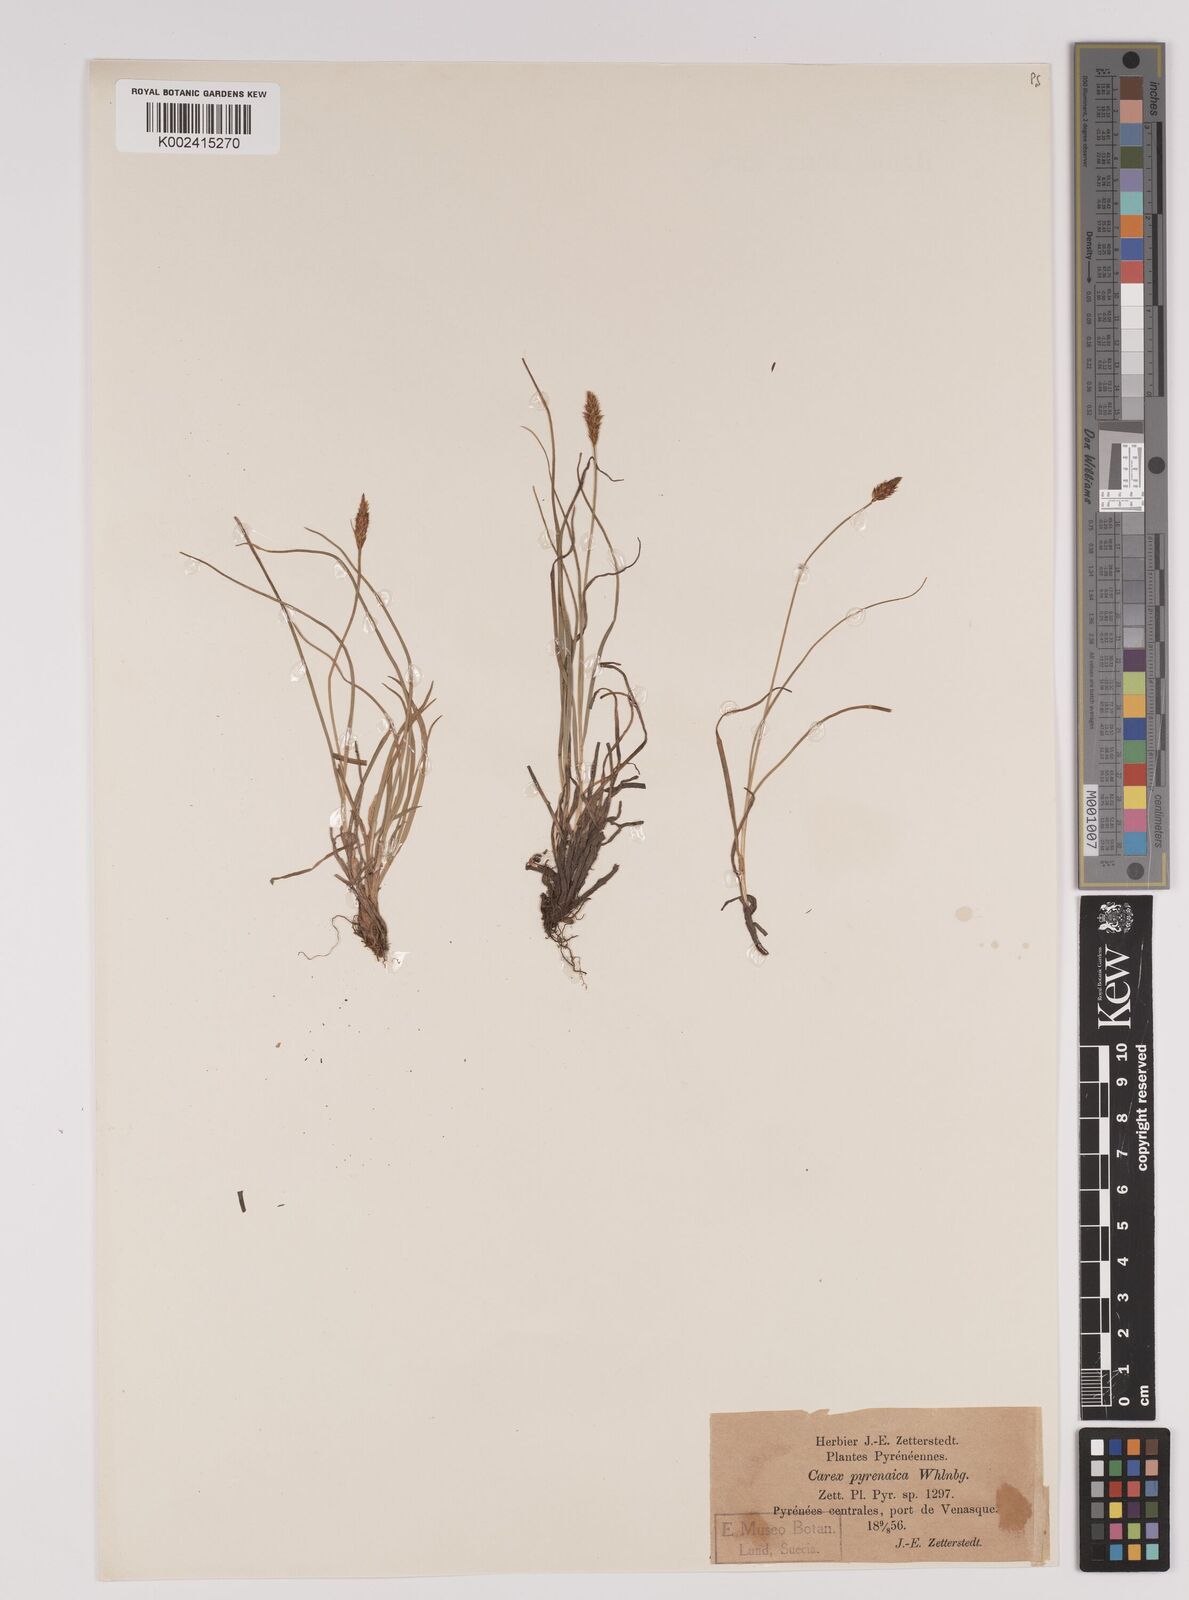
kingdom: Plantae
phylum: Tracheophyta
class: Liliopsida
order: Poales
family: Cyperaceae
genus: Carex
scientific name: Carex pyrenaica
